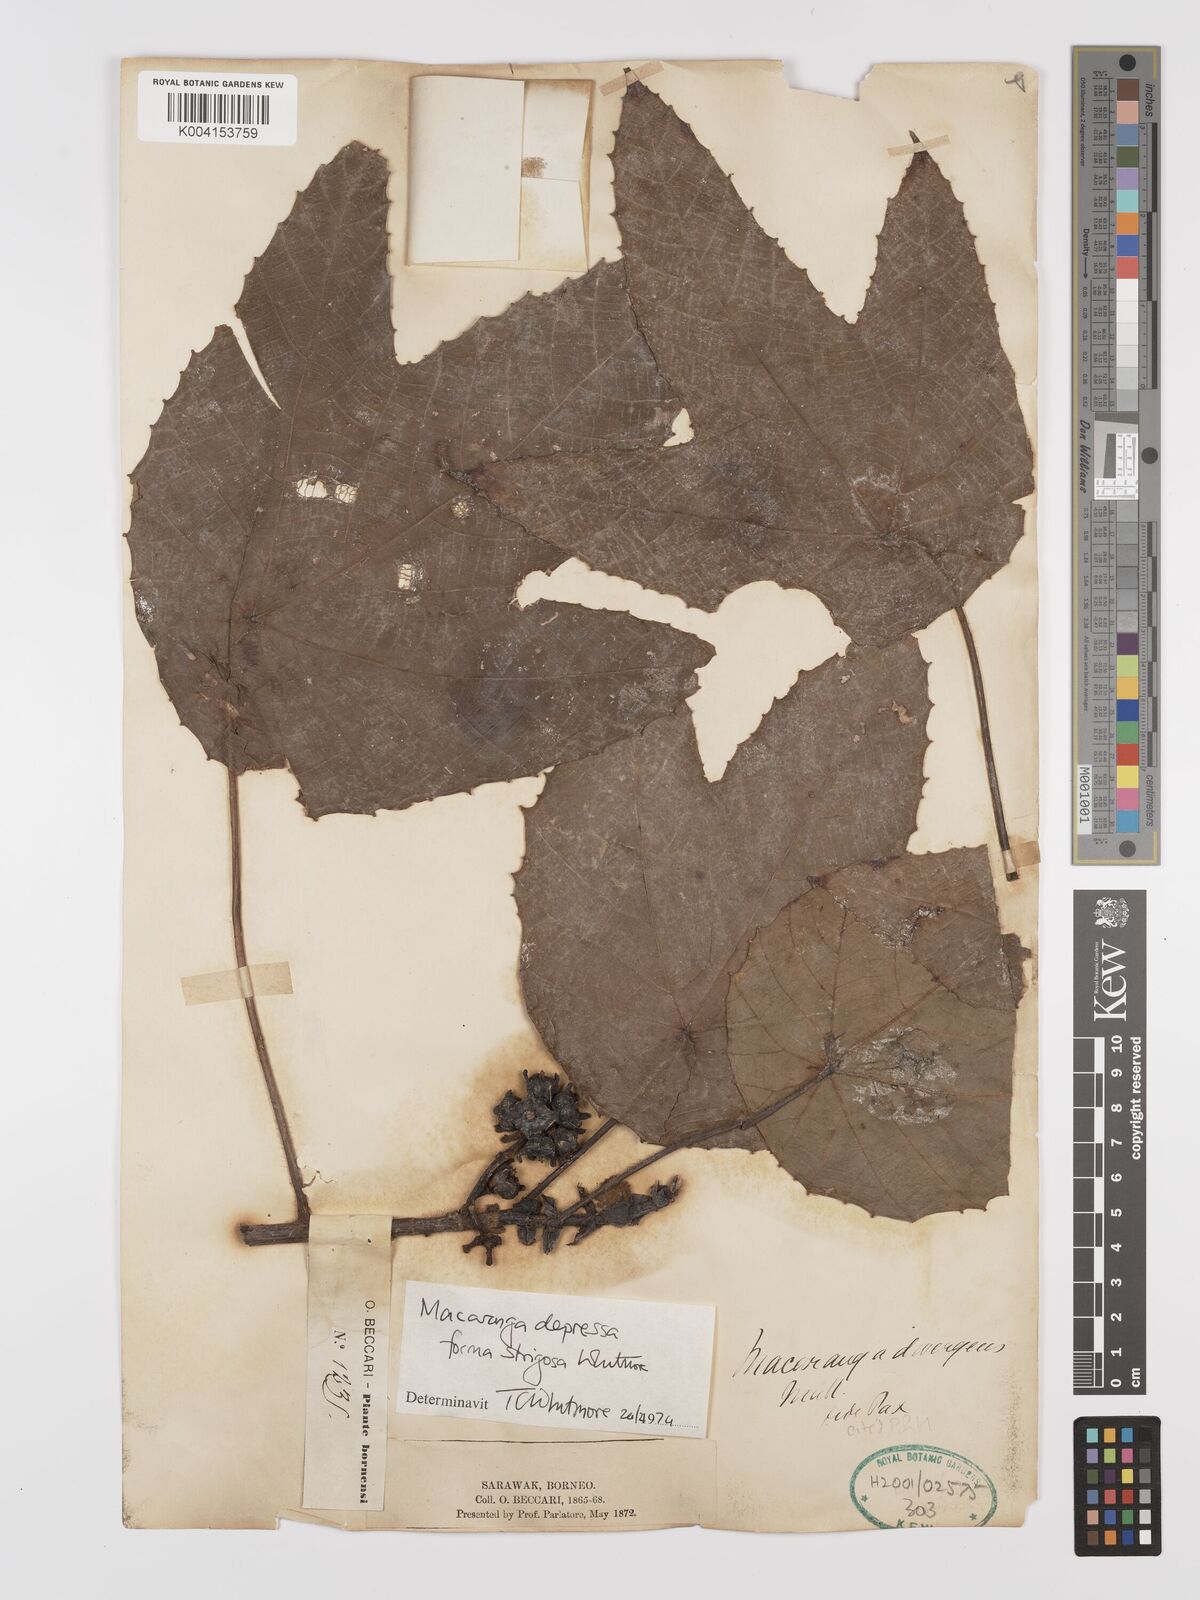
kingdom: Plantae
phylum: Tracheophyta
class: Magnoliopsida
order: Malpighiales
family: Euphorbiaceae
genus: Macaranga
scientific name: Macaranga depressa
